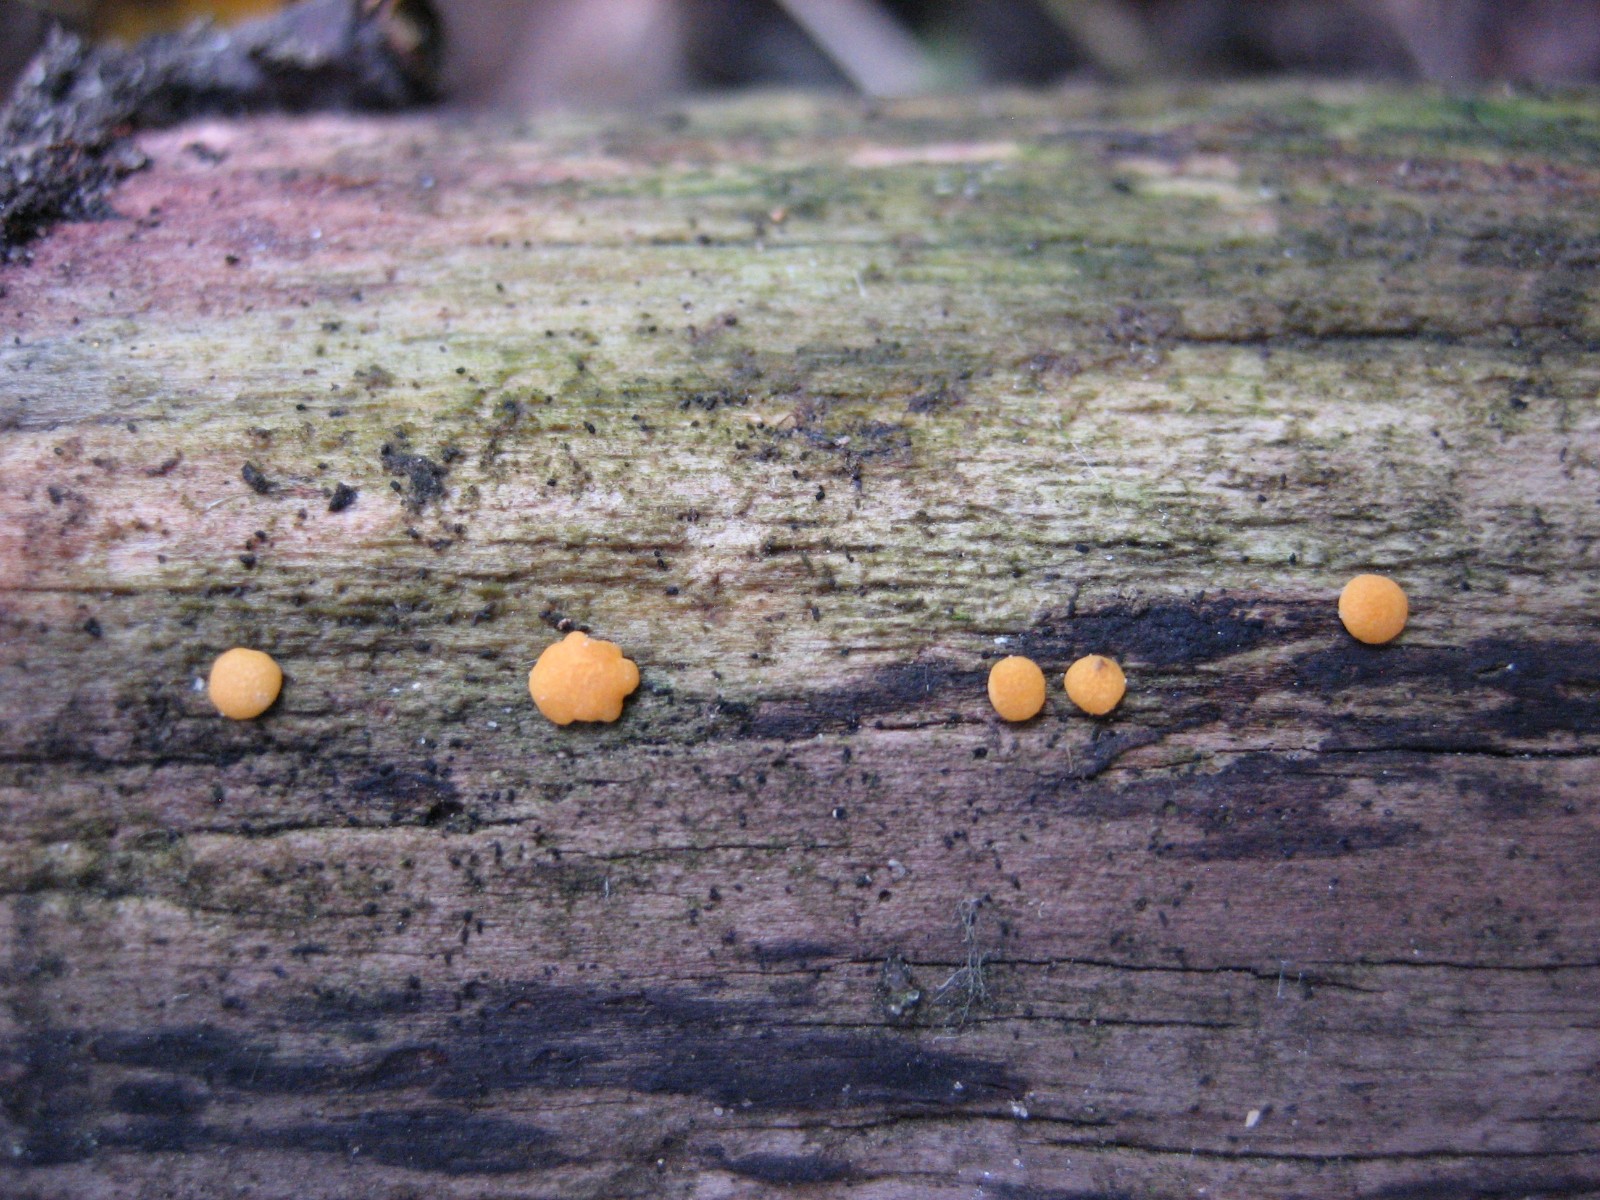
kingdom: Fungi
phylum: Ascomycota
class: Sordariomycetes
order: Hypocreales
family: Hypocreaceae
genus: Trichoderma
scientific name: Trichoderma aureoviride
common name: æggegul kødkerne
